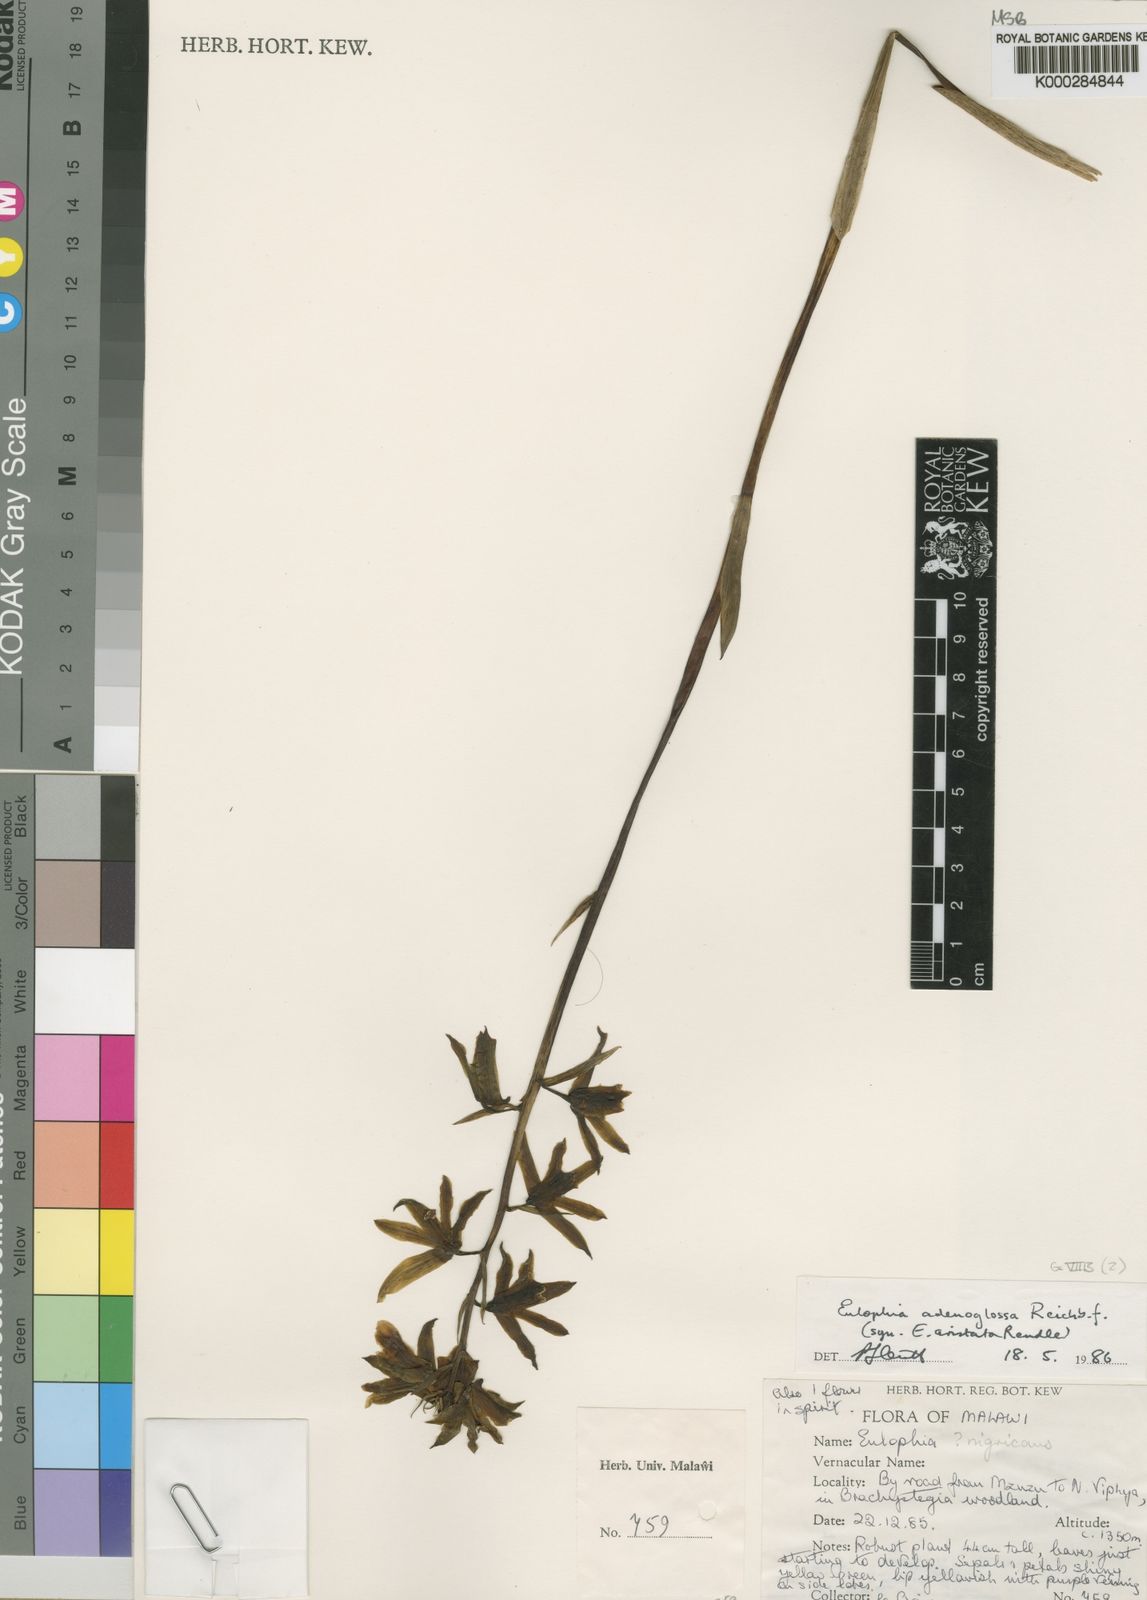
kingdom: Plantae
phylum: Tracheophyta
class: Liliopsida
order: Asparagales
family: Orchidaceae
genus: Eulophia
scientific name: Eulophia adenoglossa
